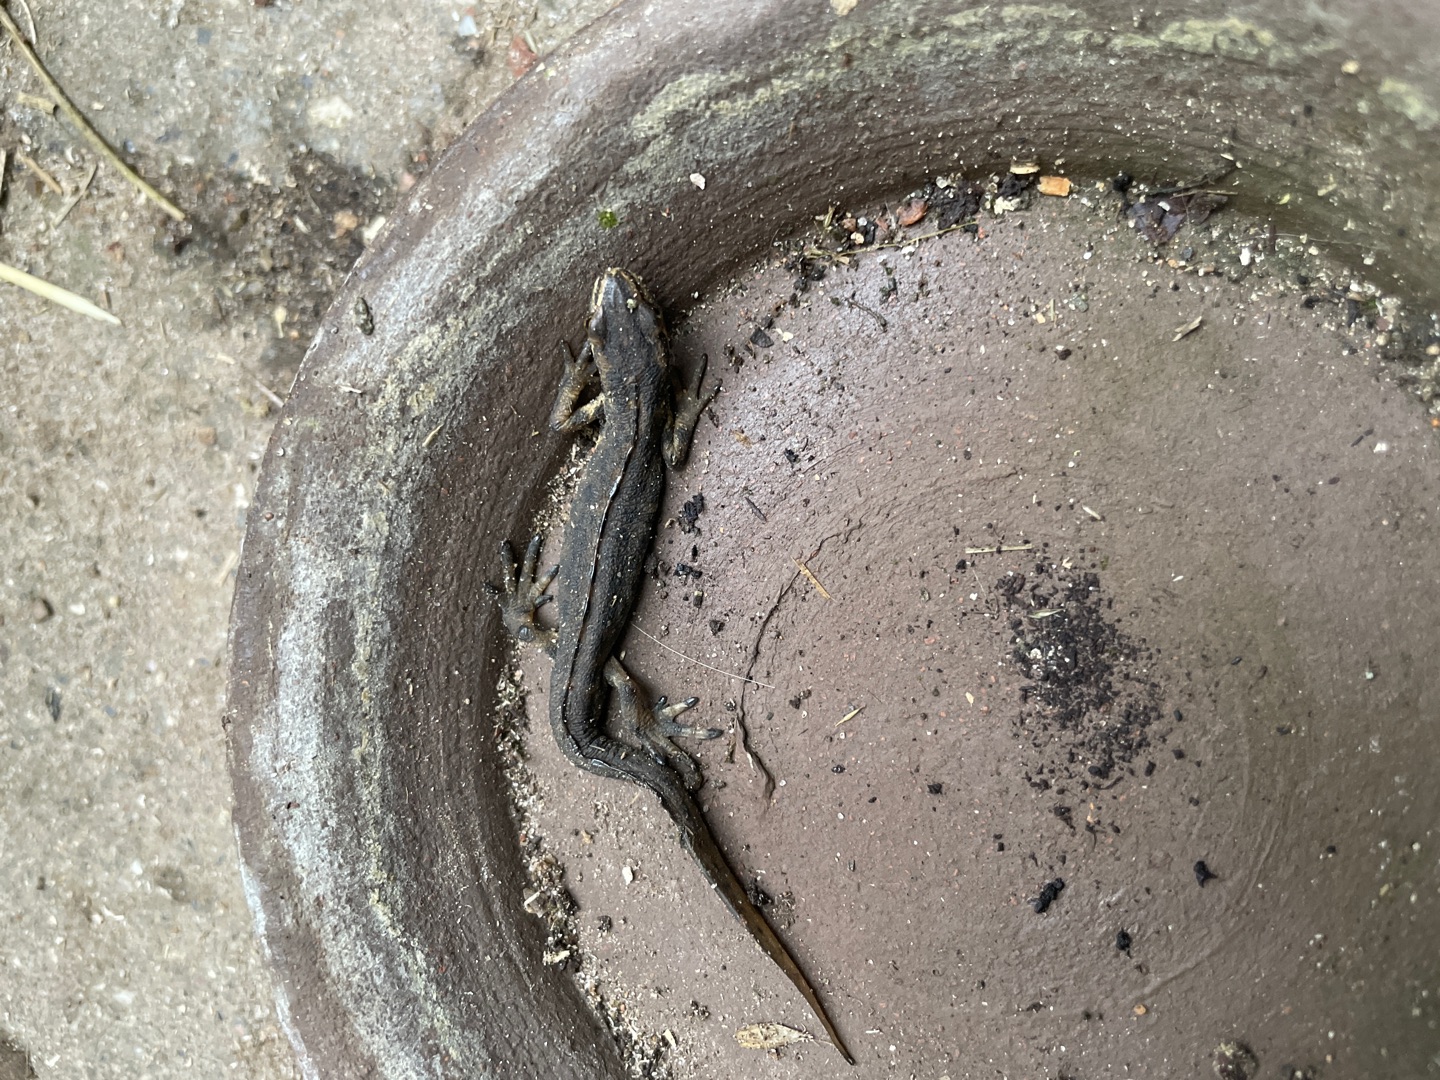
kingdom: Animalia
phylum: Chordata
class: Amphibia
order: Caudata
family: Salamandridae
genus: Lissotriton
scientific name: Lissotriton vulgaris
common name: Lille vandsalamander
